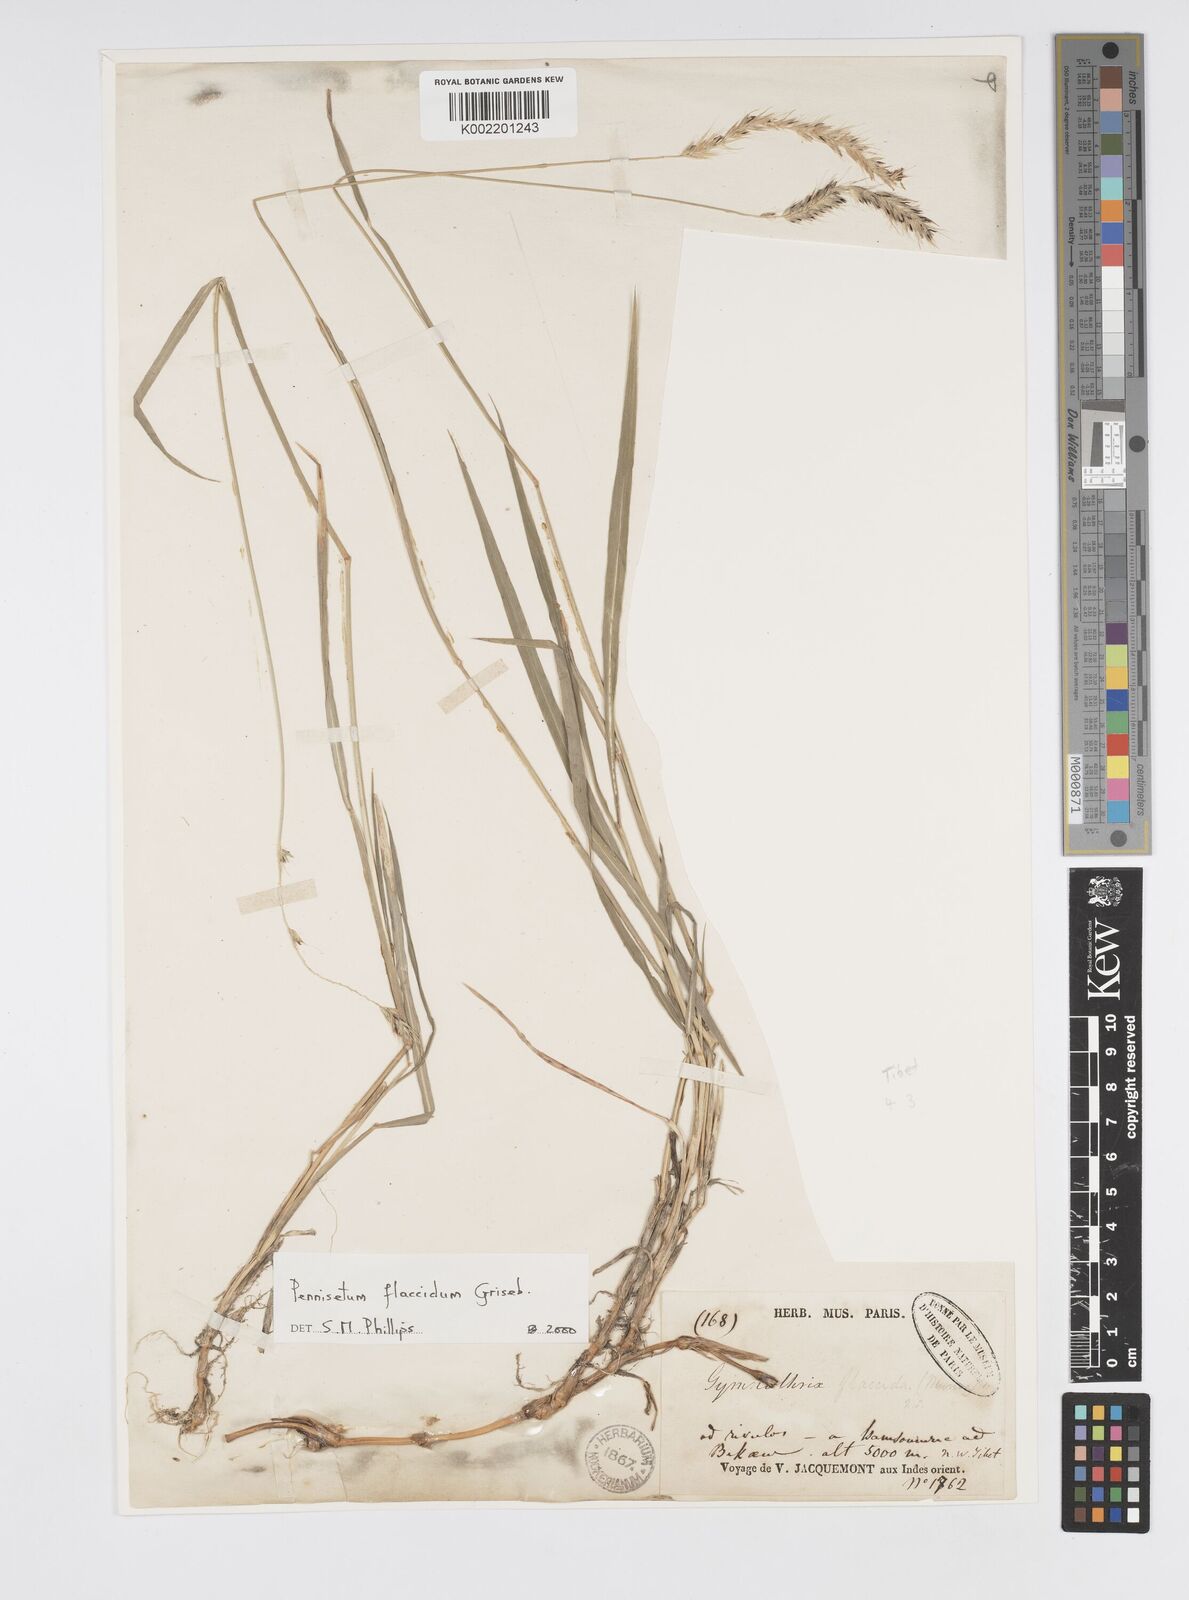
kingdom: Plantae
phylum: Tracheophyta
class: Liliopsida
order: Poales
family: Poaceae
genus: Cenchrus
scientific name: Cenchrus flaccidus
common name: Flaccid grass
